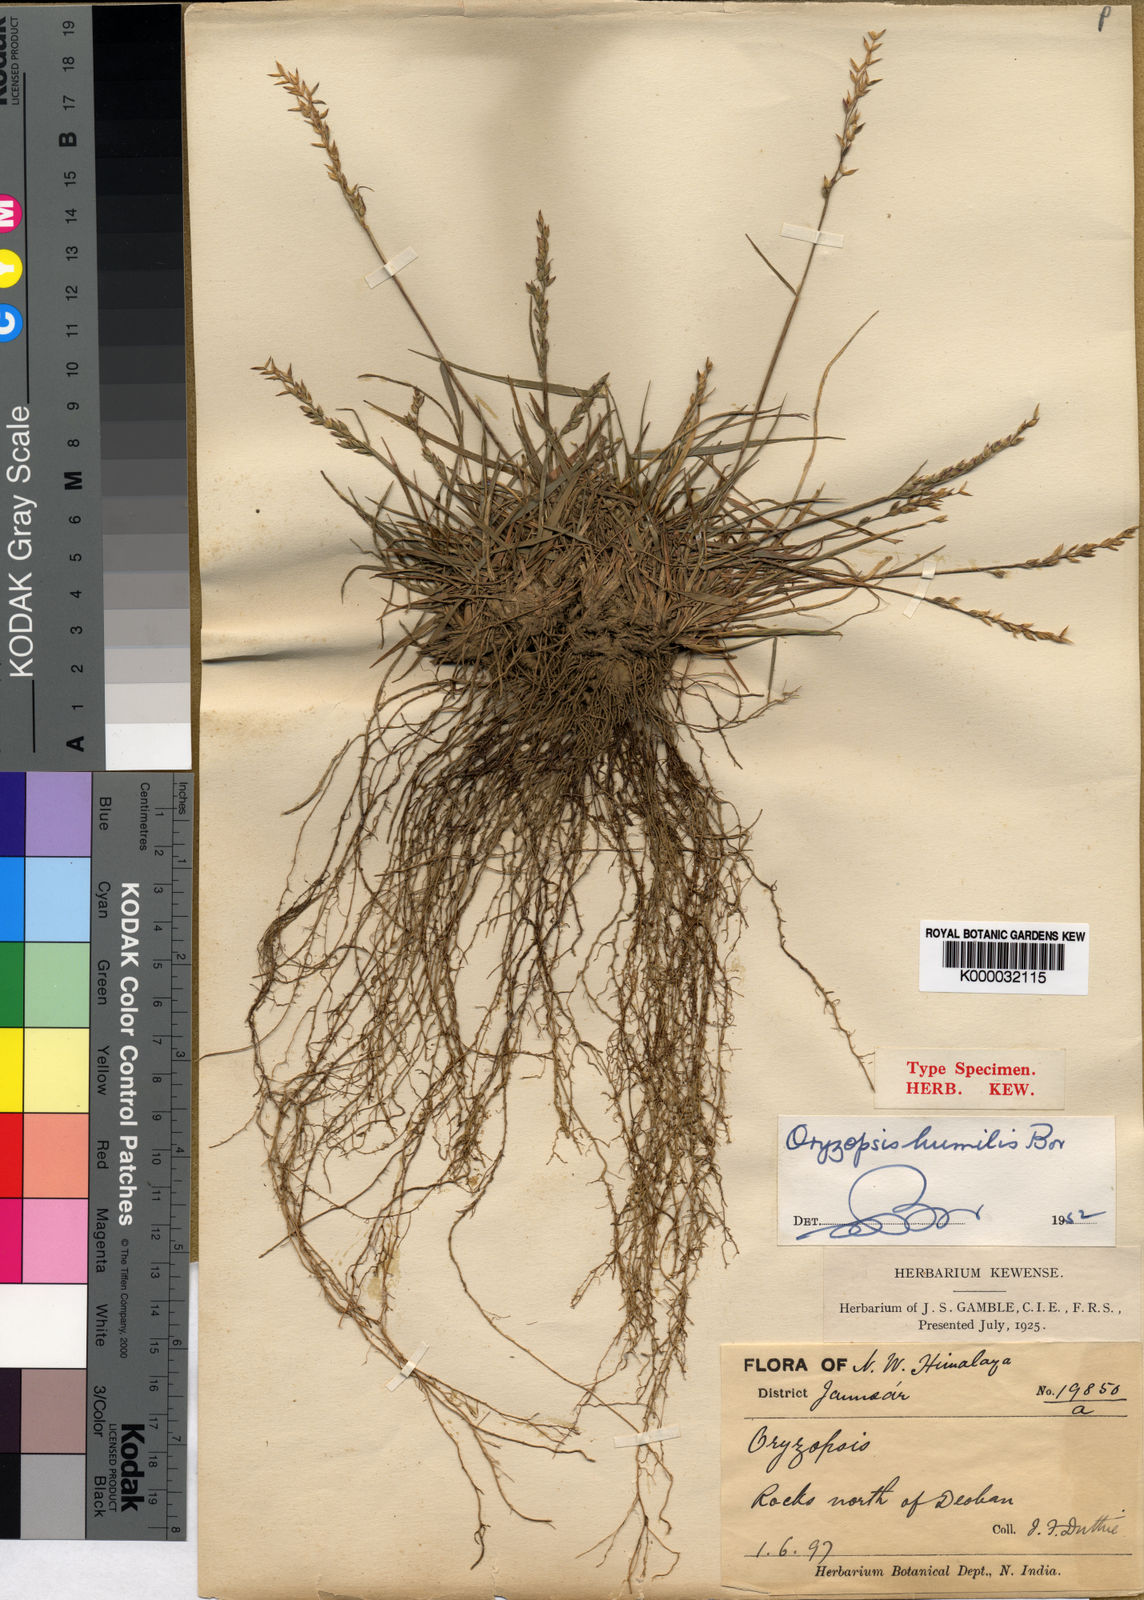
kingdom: Plantae
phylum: Tracheophyta
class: Liliopsida
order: Poales
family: Poaceae
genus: Piptatherum
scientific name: Piptatherum hilariae
